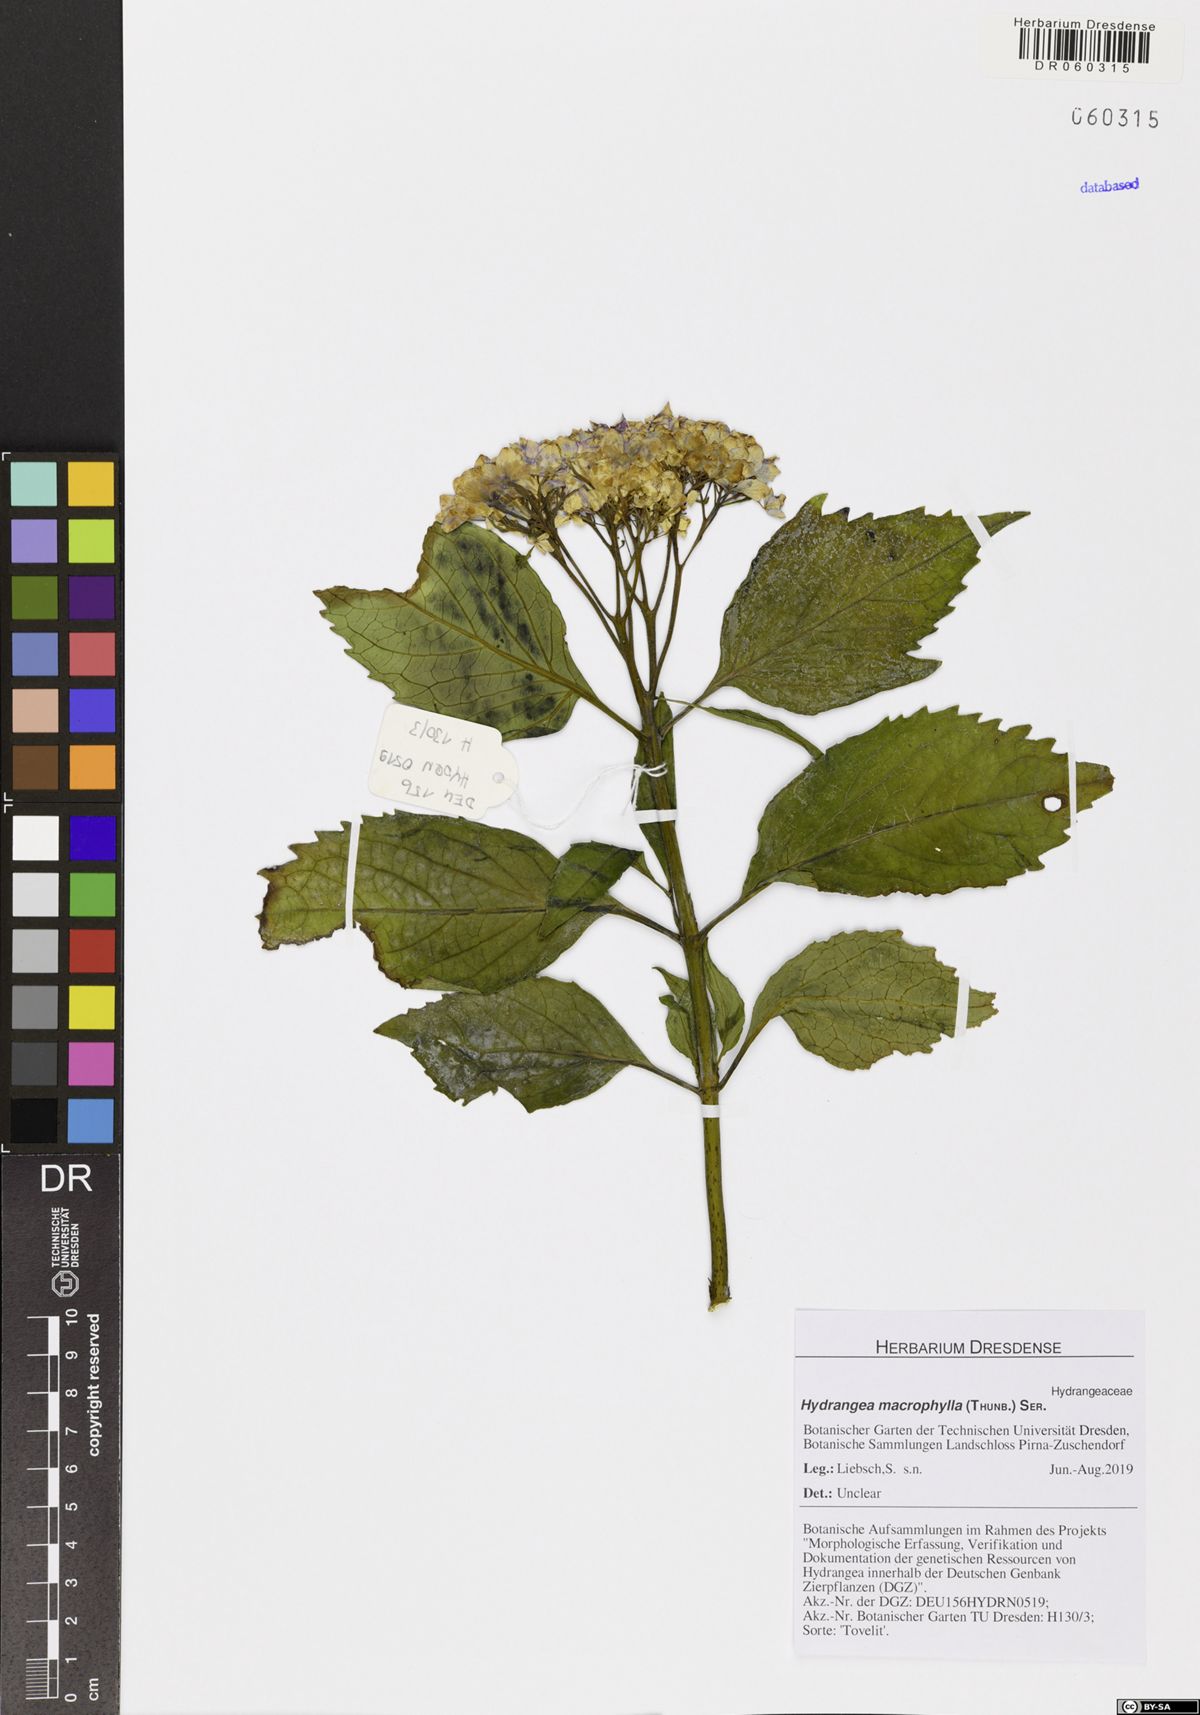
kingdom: Plantae
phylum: Tracheophyta
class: Magnoliopsida
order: Cornales
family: Hydrangeaceae
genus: Hydrangea
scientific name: Hydrangea macrophylla
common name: Hydrangea
